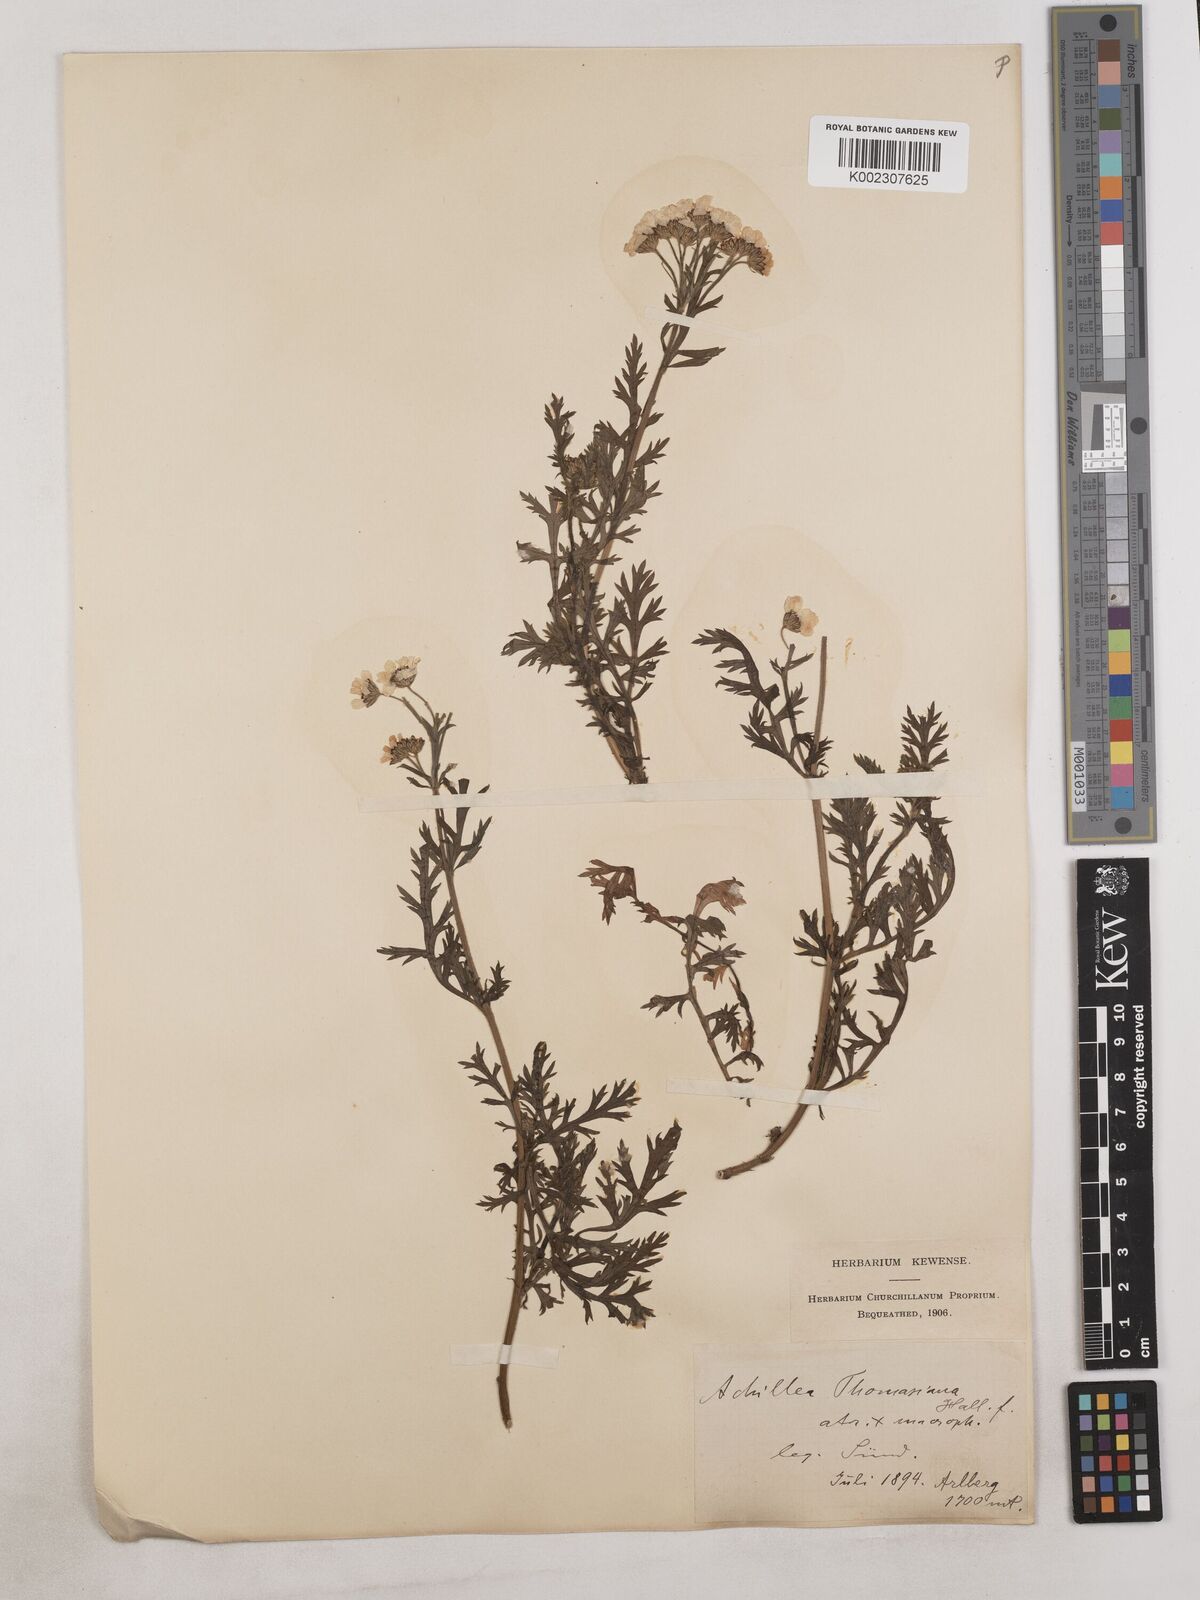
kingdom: Plantae
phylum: Tracheophyta
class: Magnoliopsida
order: Asterales
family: Asteraceae
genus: Achillea
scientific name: Achillea thomasiana ex
